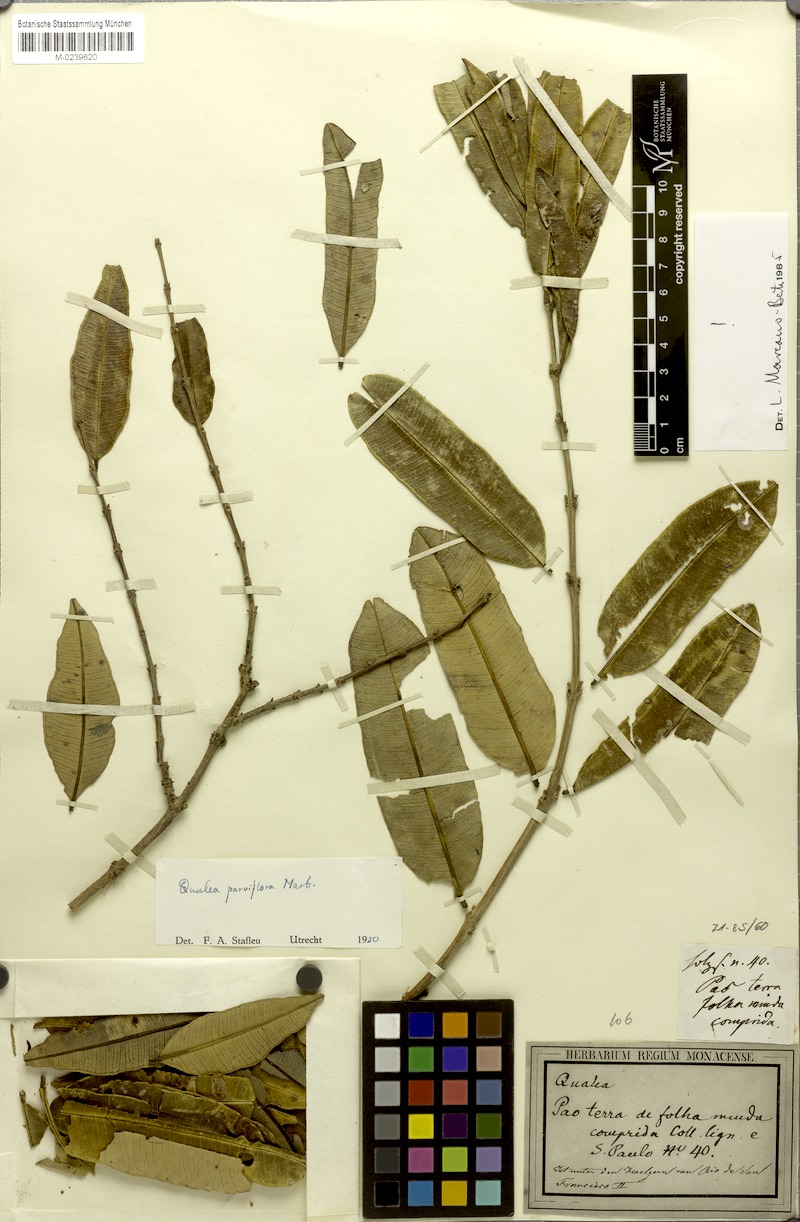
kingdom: Plantae
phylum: Tracheophyta
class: Magnoliopsida
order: Myrtales
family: Vochysiaceae
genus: Qualea
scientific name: Qualea parviflora
